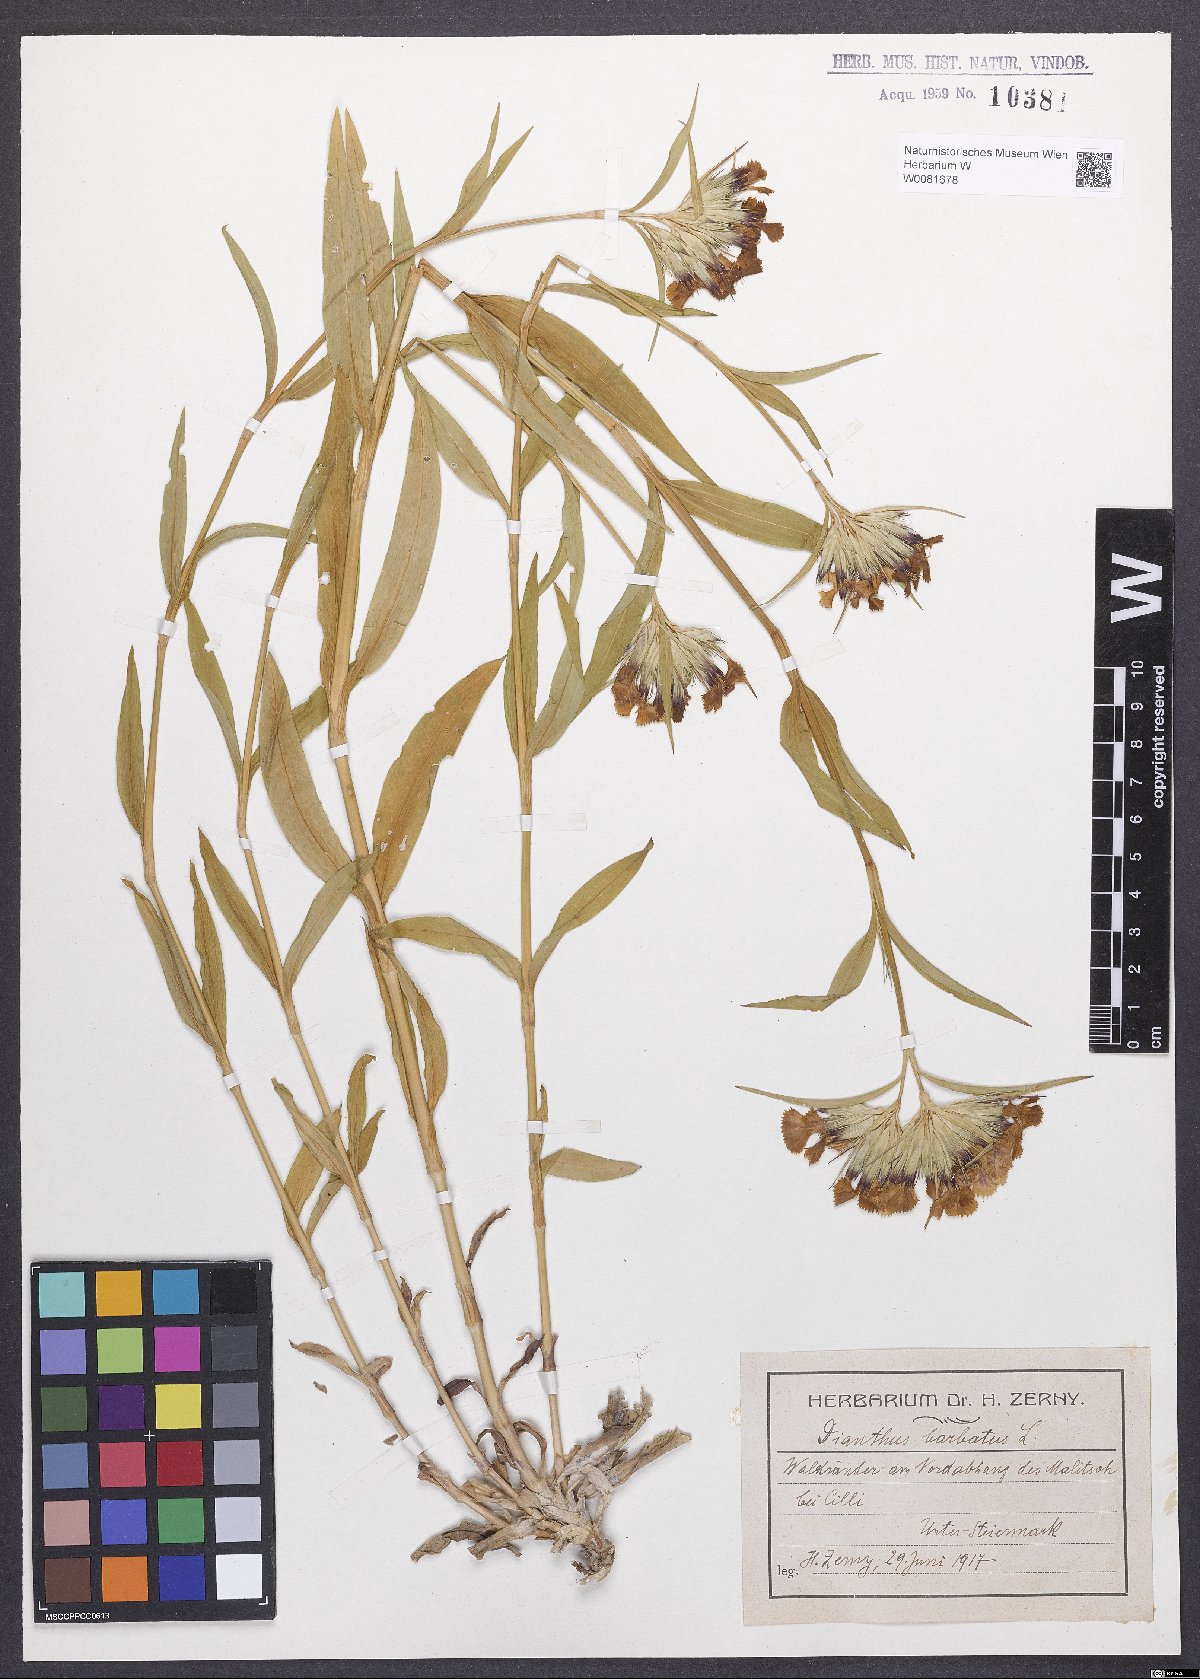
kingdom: Plantae
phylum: Tracheophyta
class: Magnoliopsida
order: Caryophyllales
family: Caryophyllaceae
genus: Dianthus
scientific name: Dianthus barbatus
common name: Sweet-william
